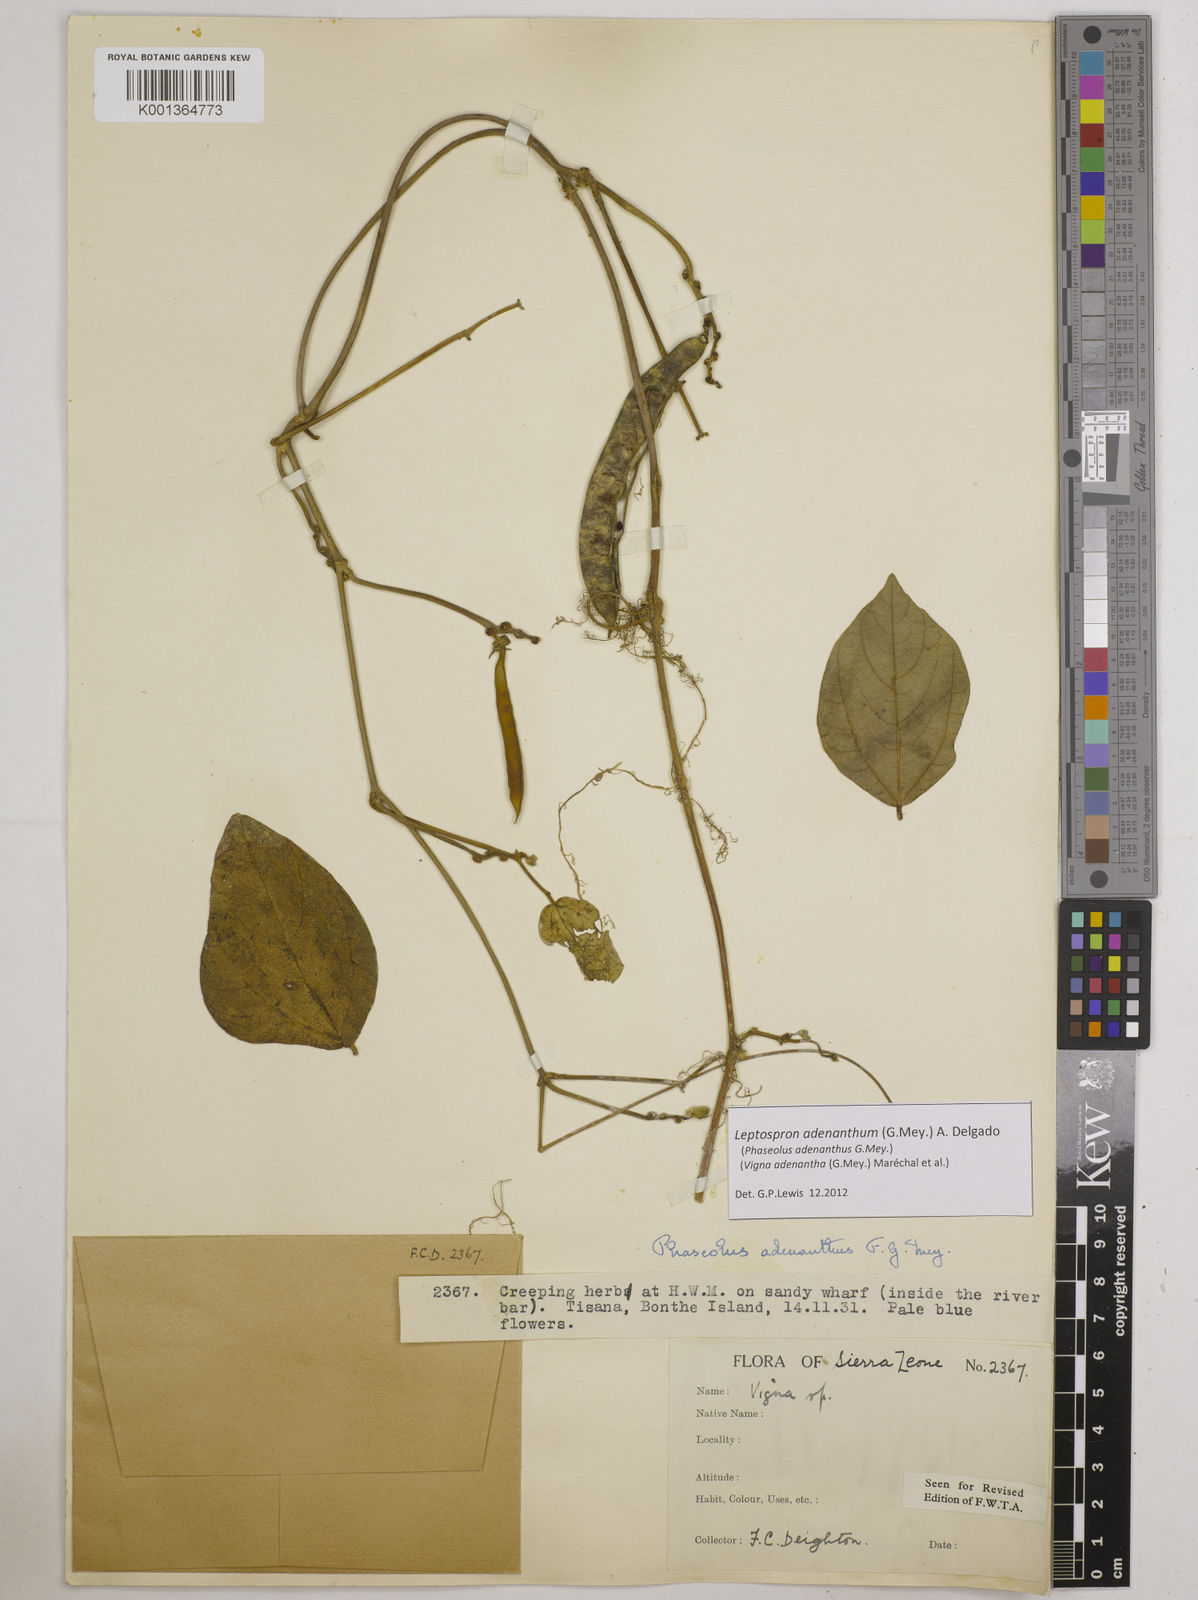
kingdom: Plantae
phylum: Tracheophyta
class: Magnoliopsida
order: Fabales
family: Fabaceae
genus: Leptospron
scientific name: Leptospron adenanthum
